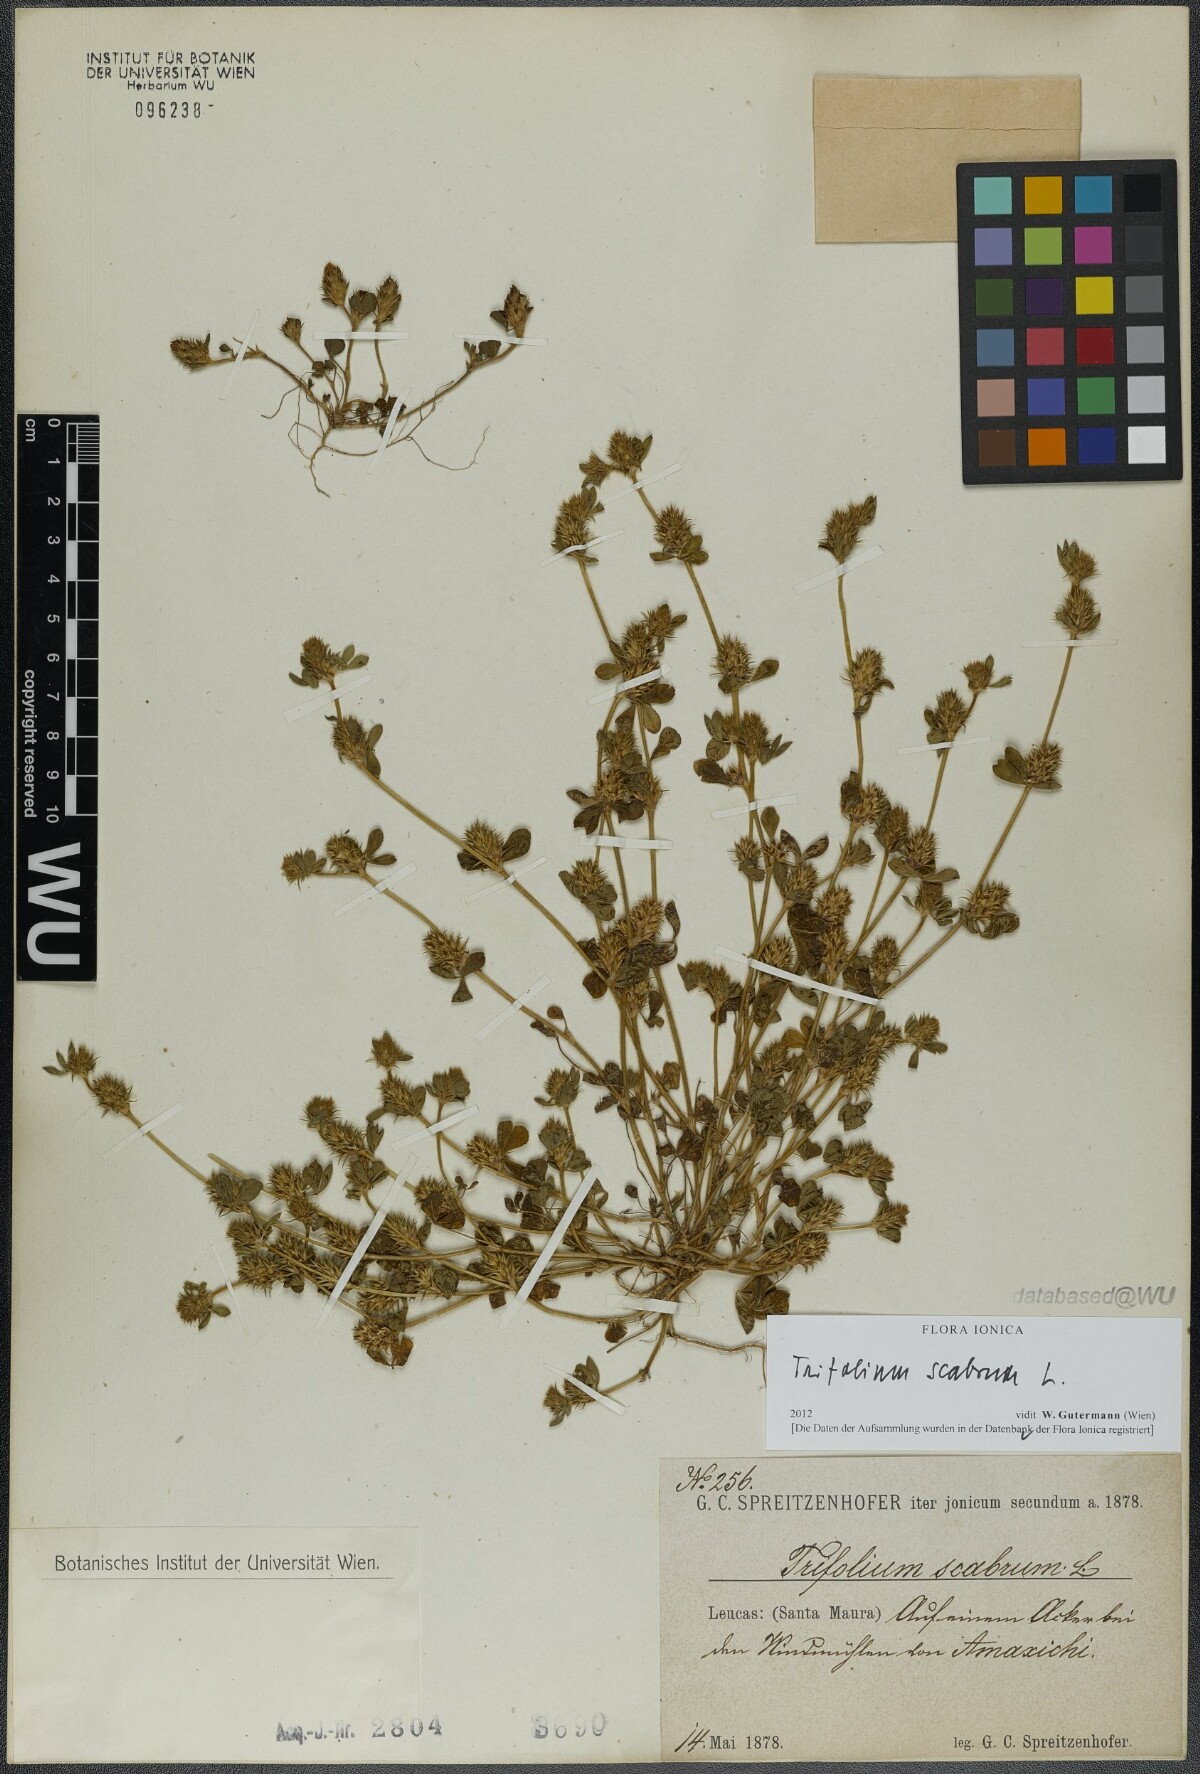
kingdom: Plantae
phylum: Tracheophyta
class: Magnoliopsida
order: Fabales
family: Fabaceae
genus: Trifolium
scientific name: Trifolium scabrum
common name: Rough clover
